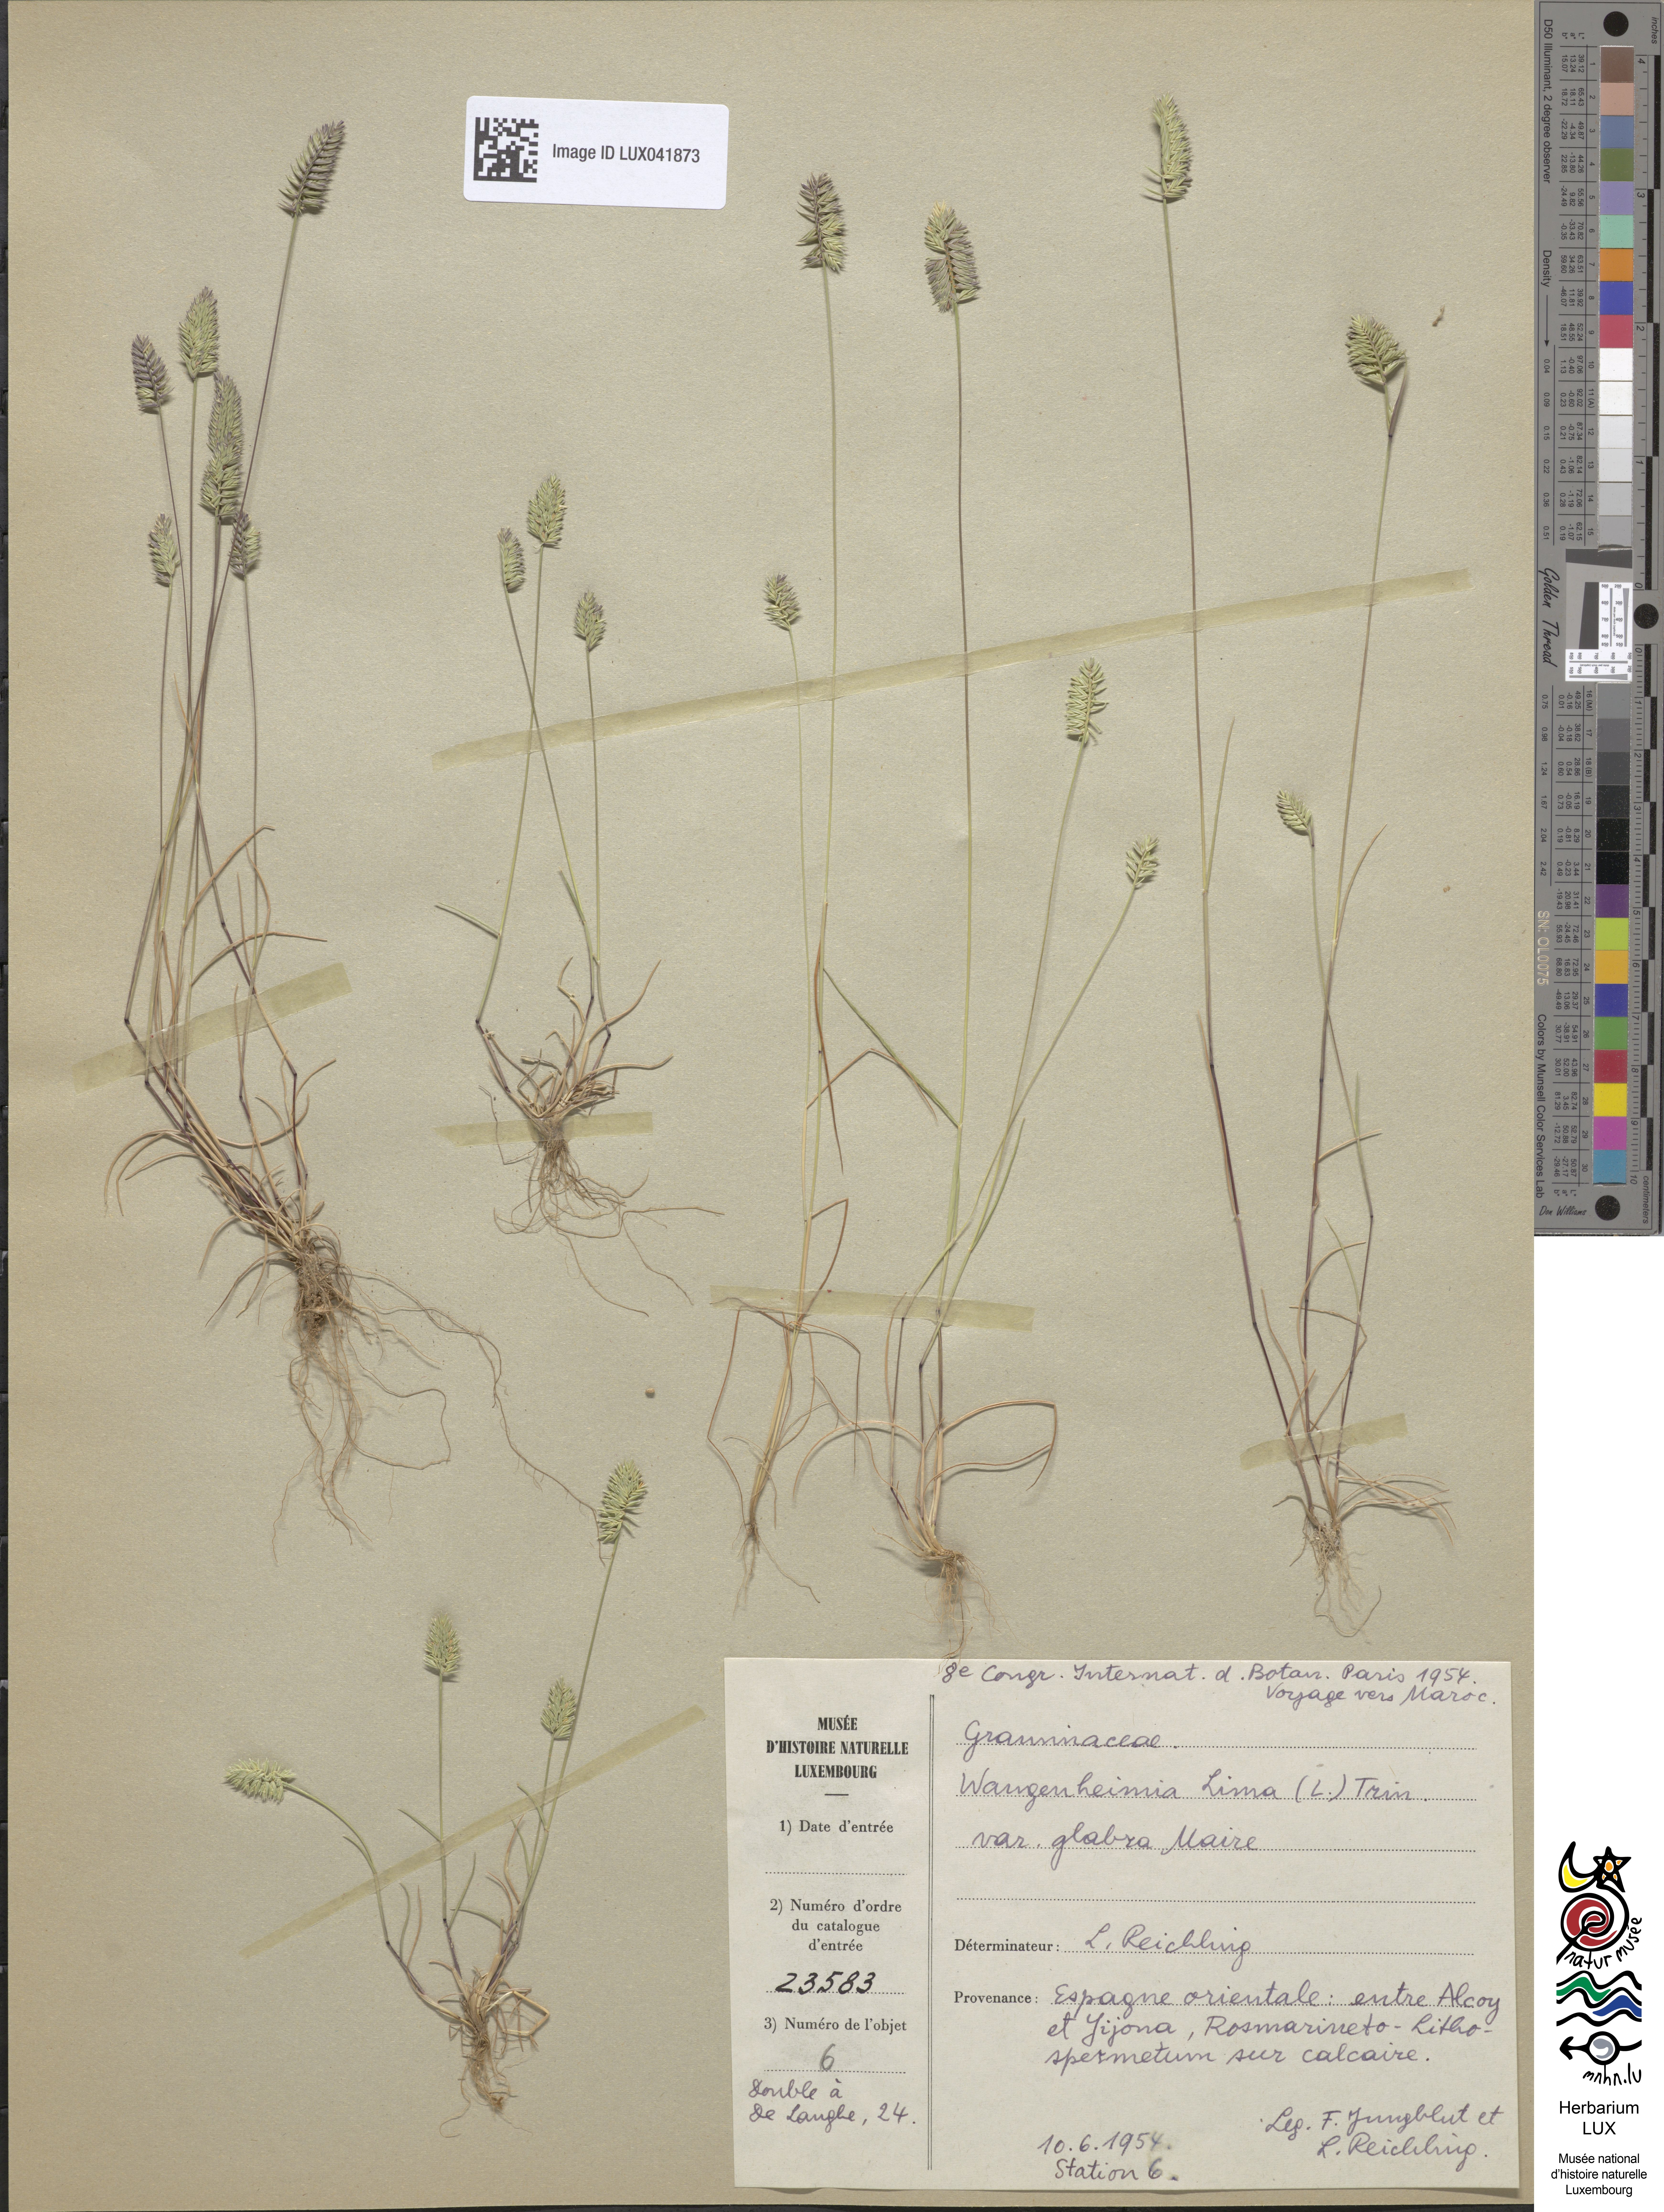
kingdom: Plantae
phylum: Tracheophyta
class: Liliopsida
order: Poales
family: Poaceae
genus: Wangenheimia
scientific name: Wangenheimia lima
